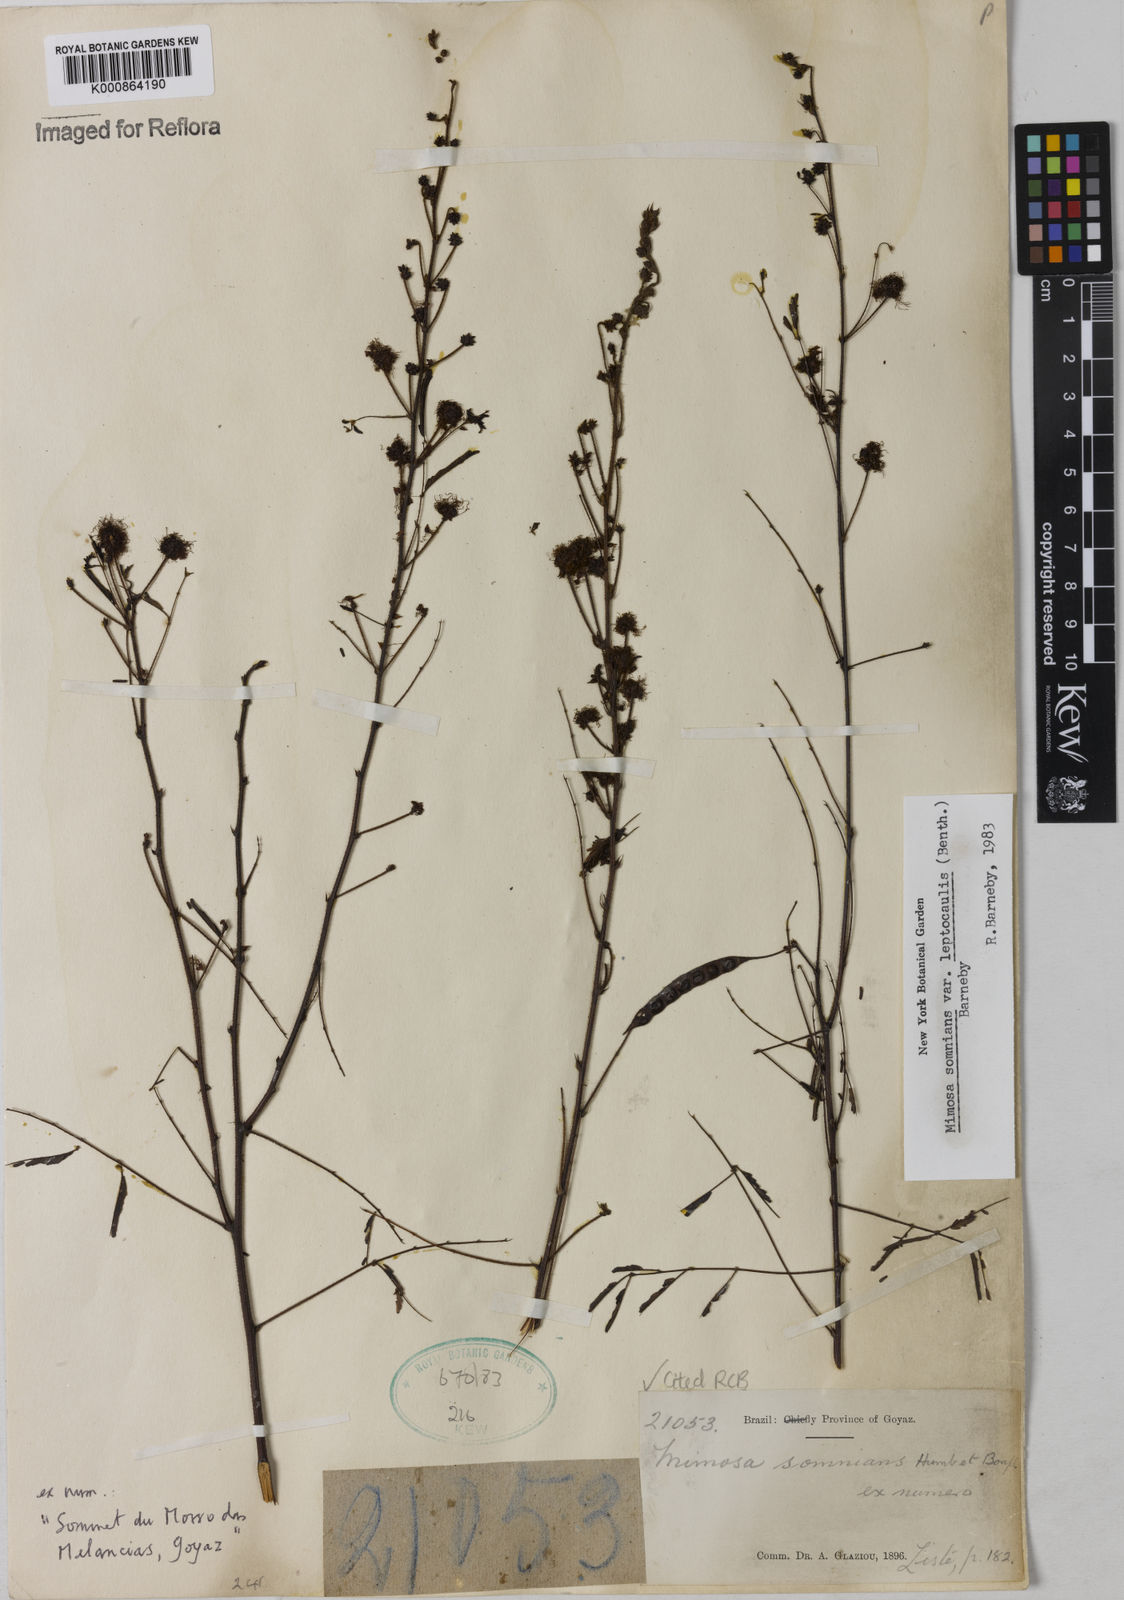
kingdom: Plantae
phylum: Tracheophyta
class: Magnoliopsida
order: Fabales
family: Fabaceae
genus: Mimosa
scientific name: Mimosa somnians
